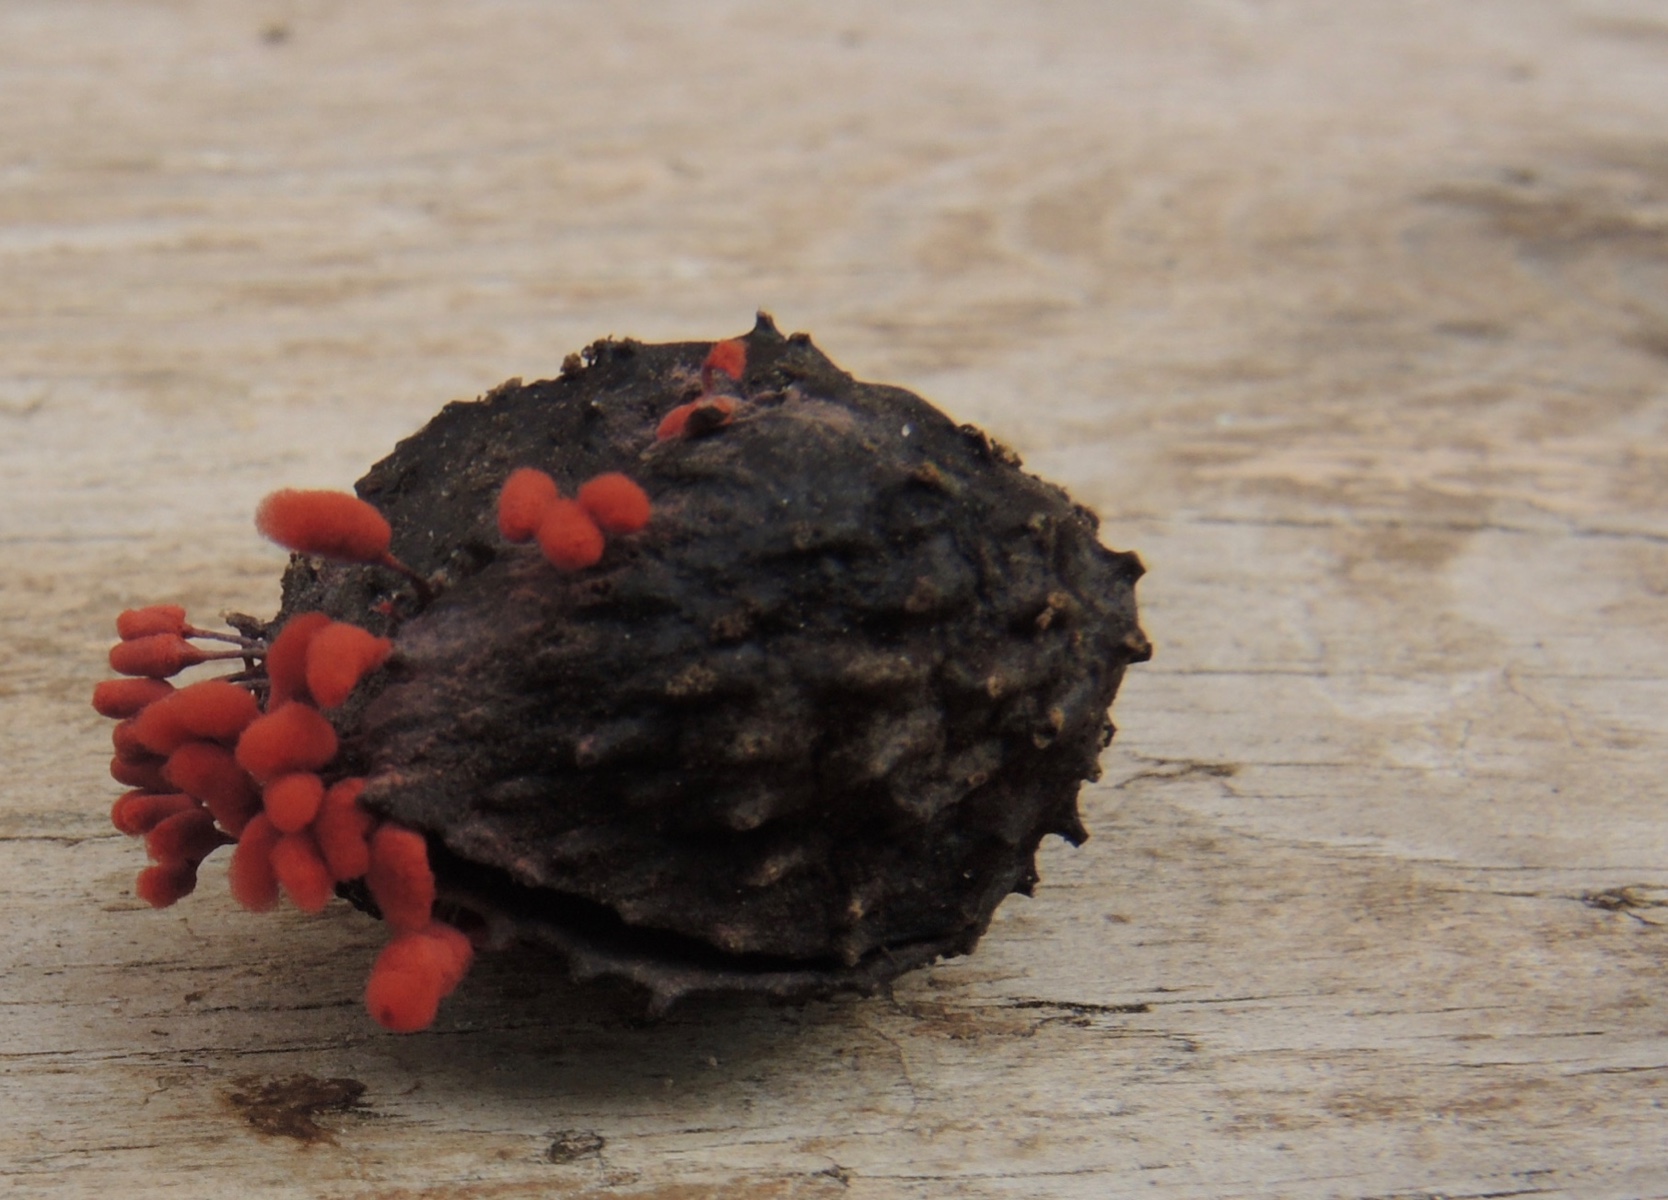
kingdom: Protozoa
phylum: Mycetozoa
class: Myxomycetes
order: Trichiales
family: Arcyriaceae
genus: Arcyria
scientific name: Arcyria denudata
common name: karminrød skålsvøb
